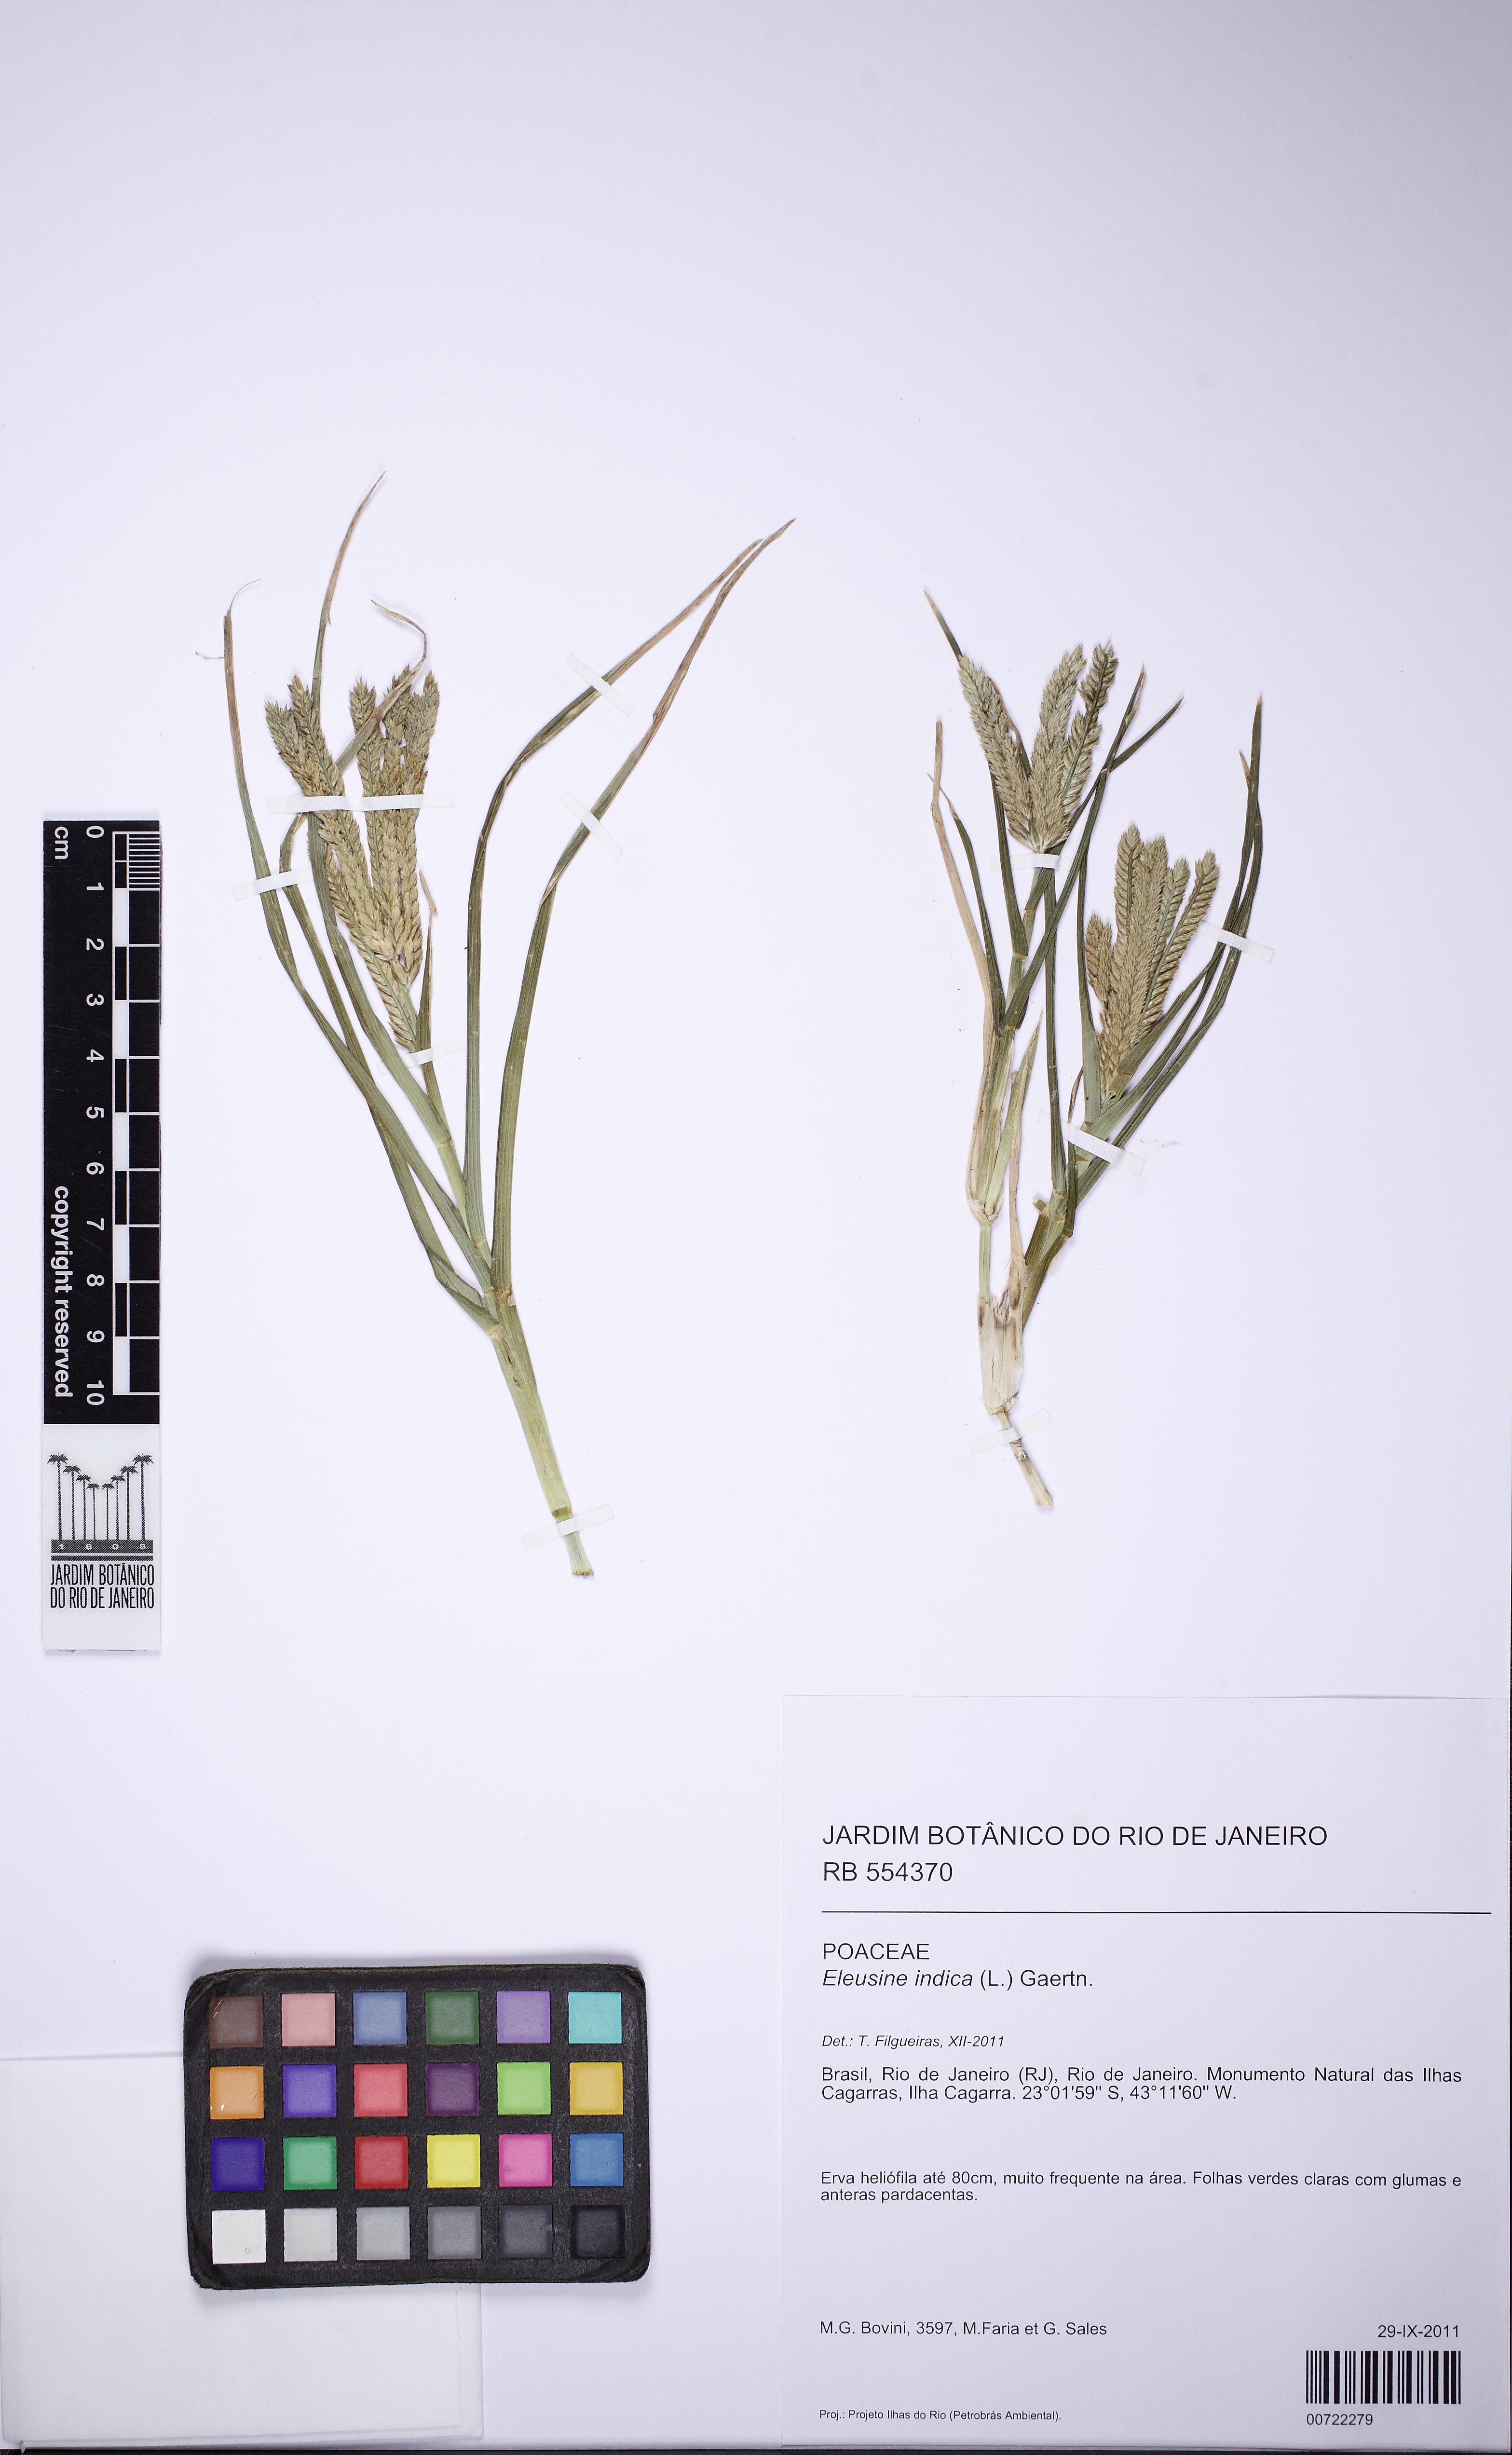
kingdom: Plantae
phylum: Tracheophyta
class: Liliopsida
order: Poales
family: Poaceae
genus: Eleusine
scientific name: Eleusine indica
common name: Yard-grass
